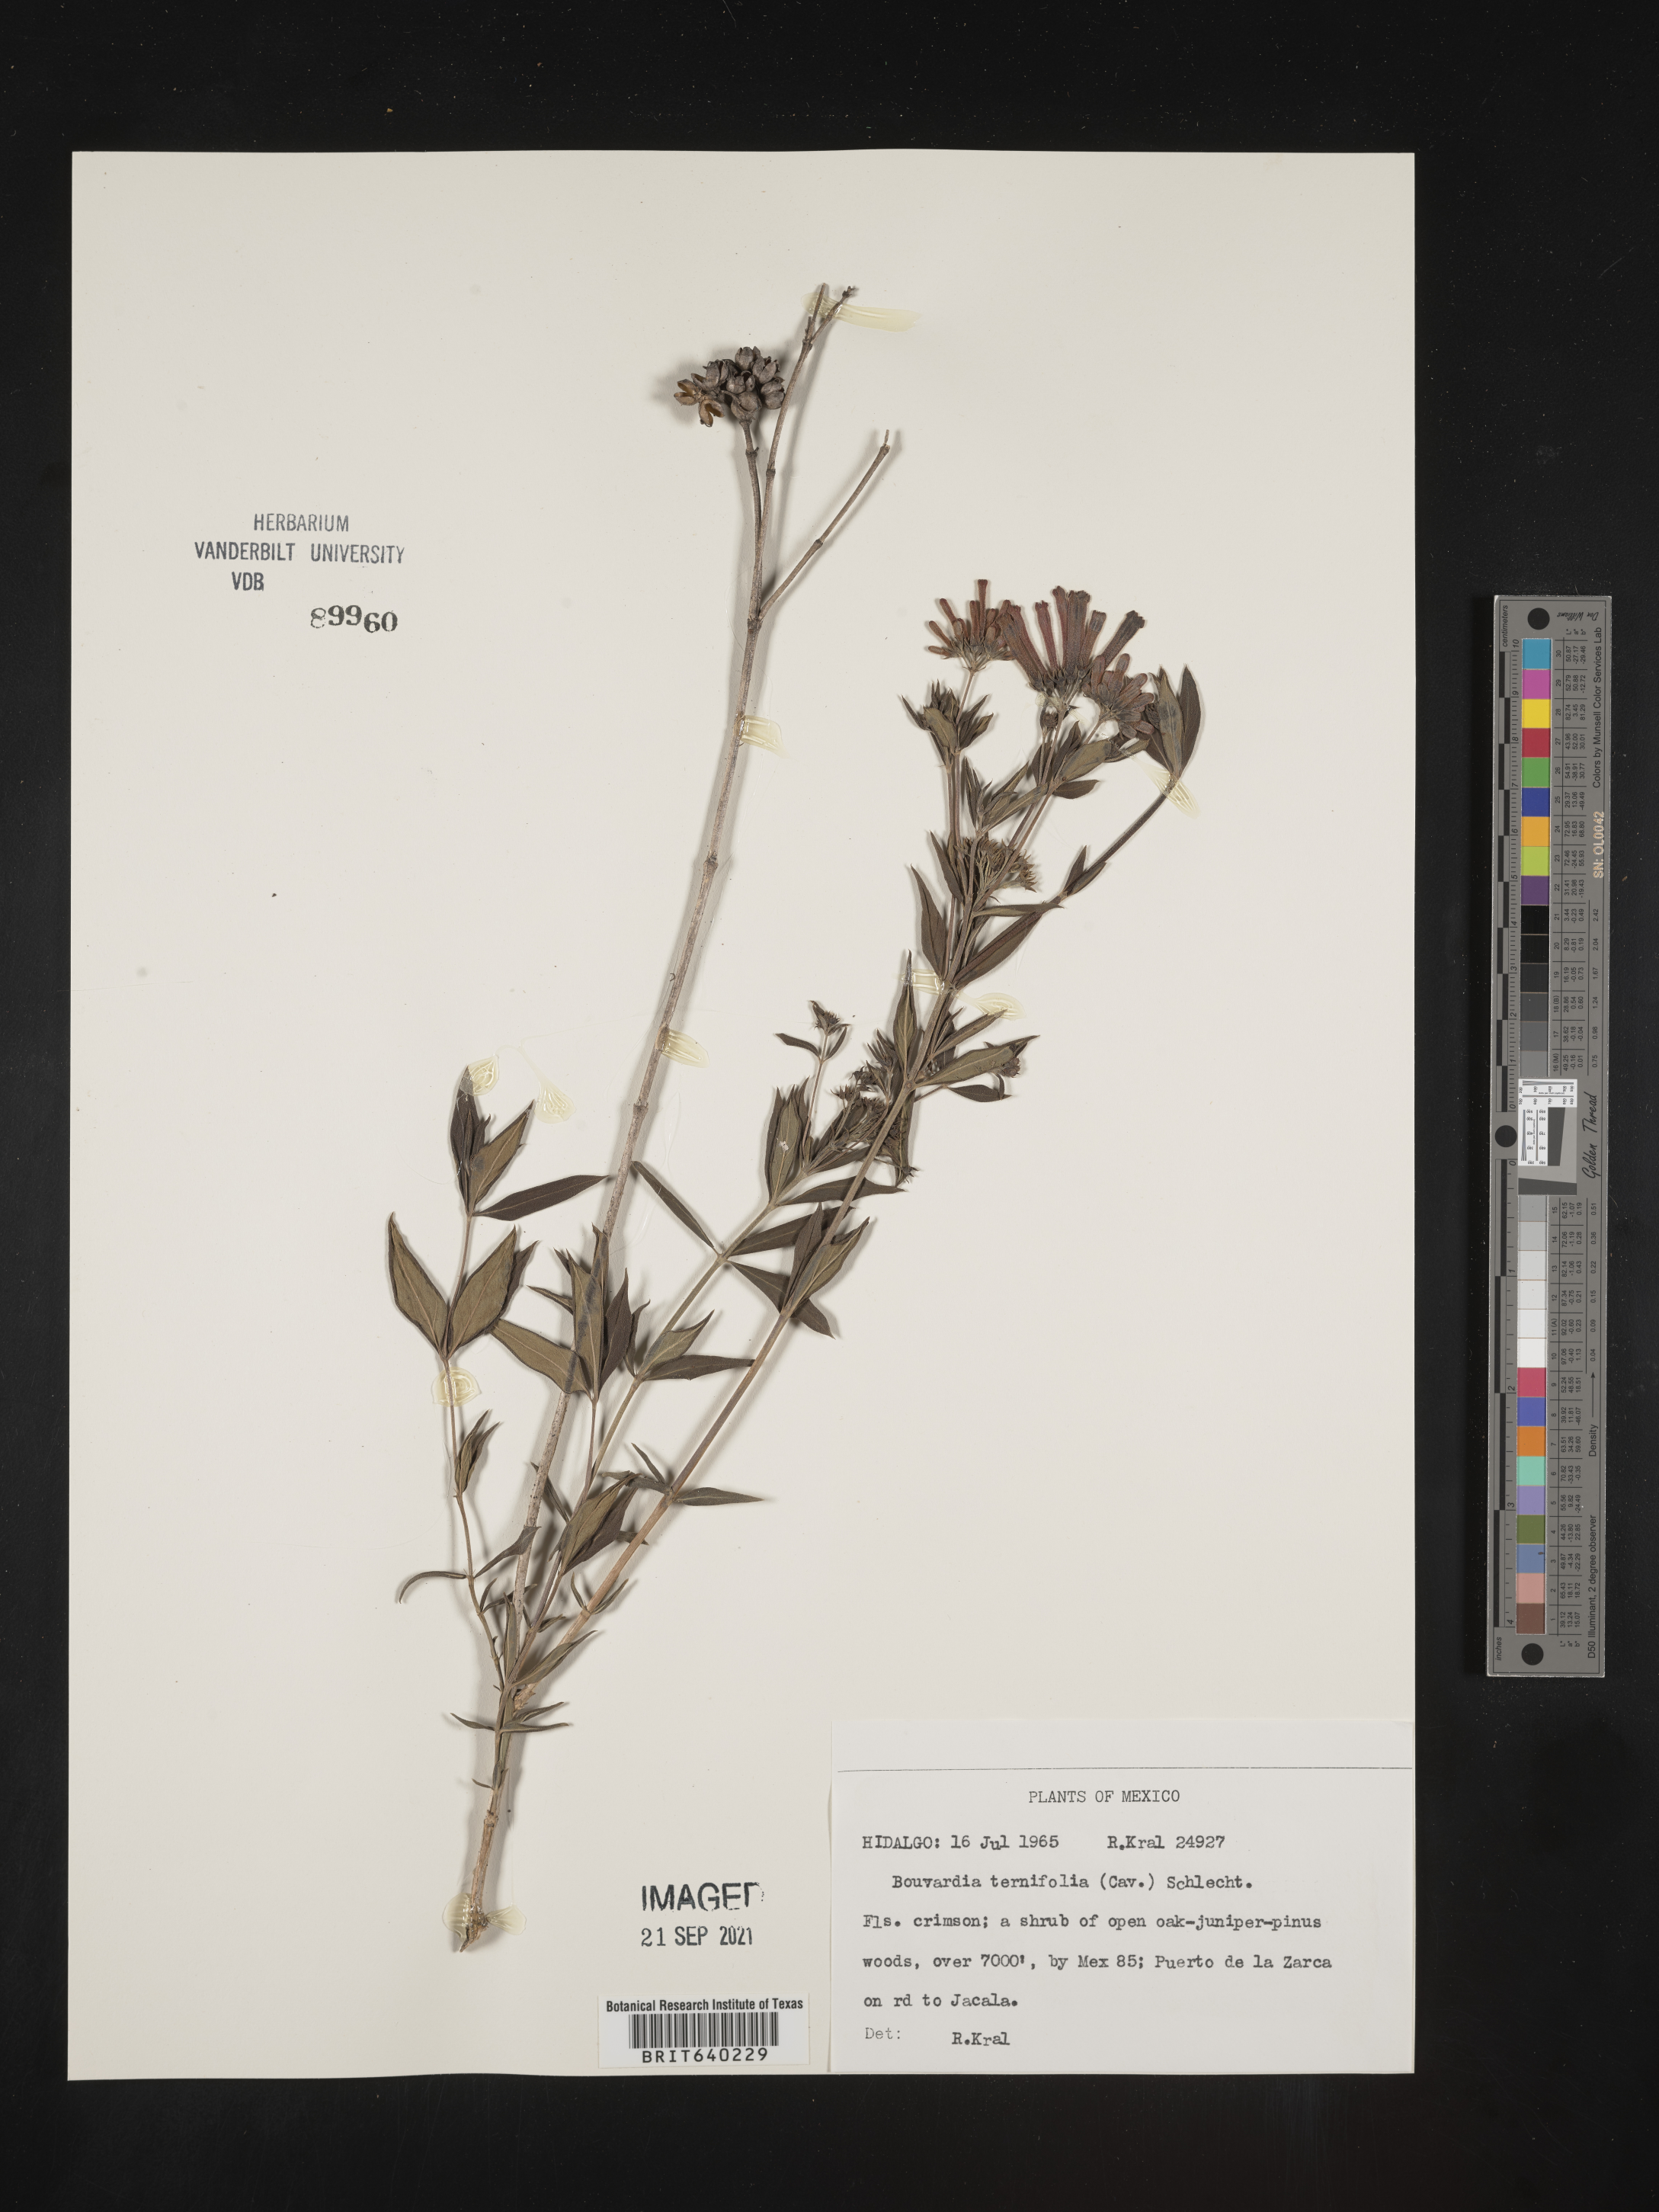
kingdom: Plantae
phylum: Tracheophyta
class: Magnoliopsida
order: Gentianales
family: Rubiaceae
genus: Bouvardia
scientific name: Bouvardia
